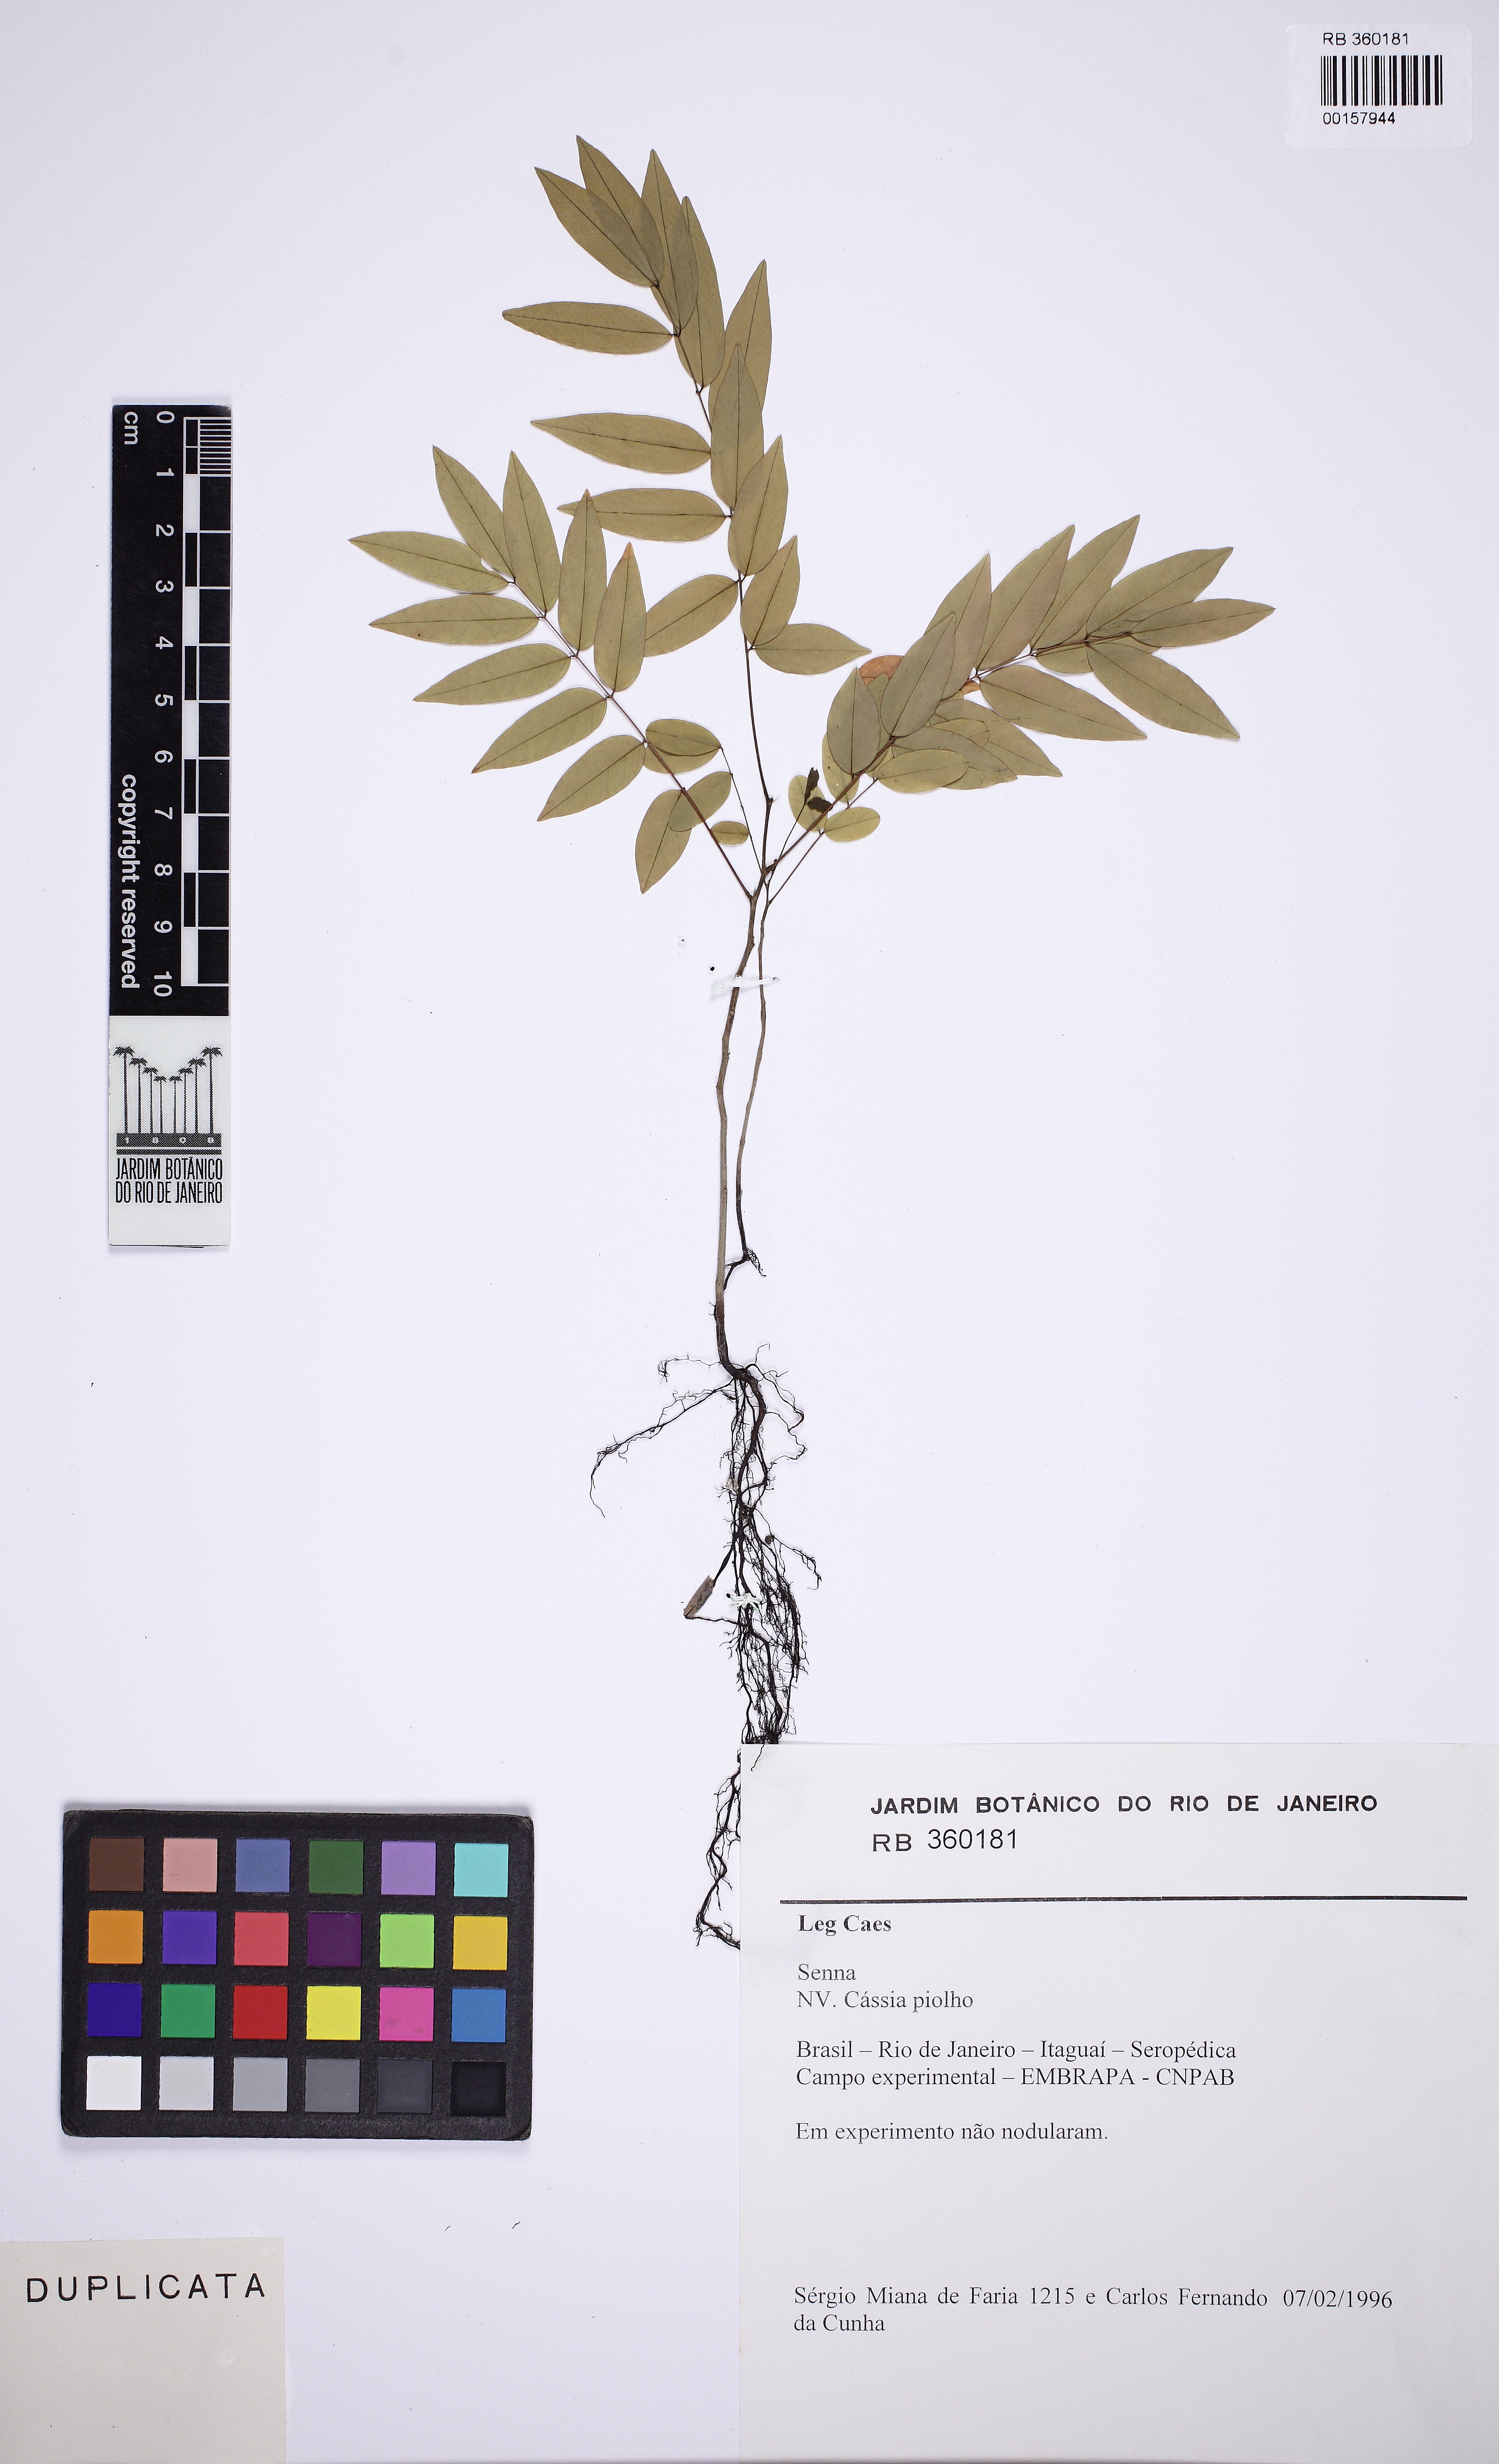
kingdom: Plantae
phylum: Tracheophyta
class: Magnoliopsida
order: Fabales
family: Fabaceae
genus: Senna
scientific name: Senna
